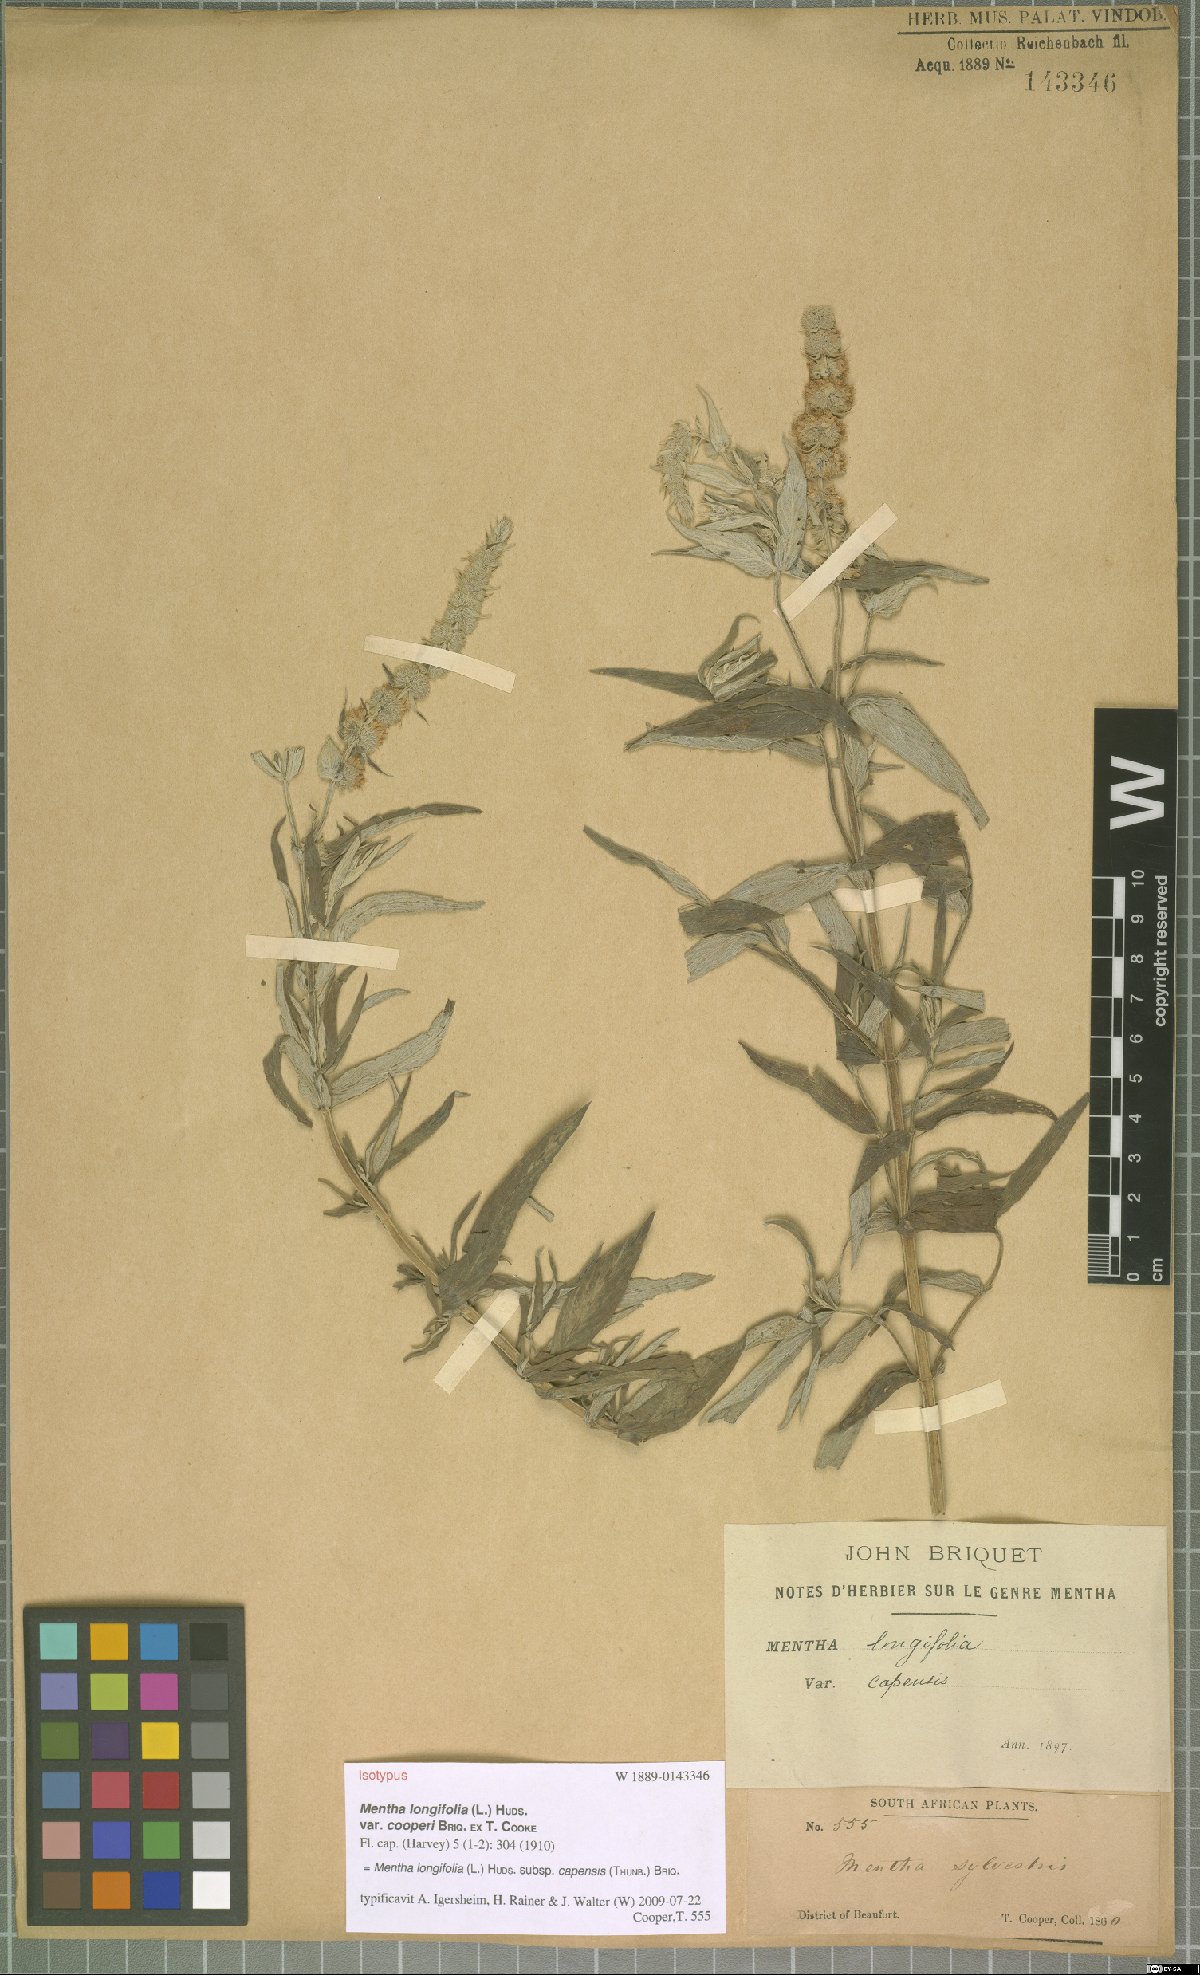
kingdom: Plantae
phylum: Tracheophyta
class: Magnoliopsida
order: Lamiales
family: Lamiaceae
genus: Mentha
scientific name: Mentha longifolia
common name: Horse mint
